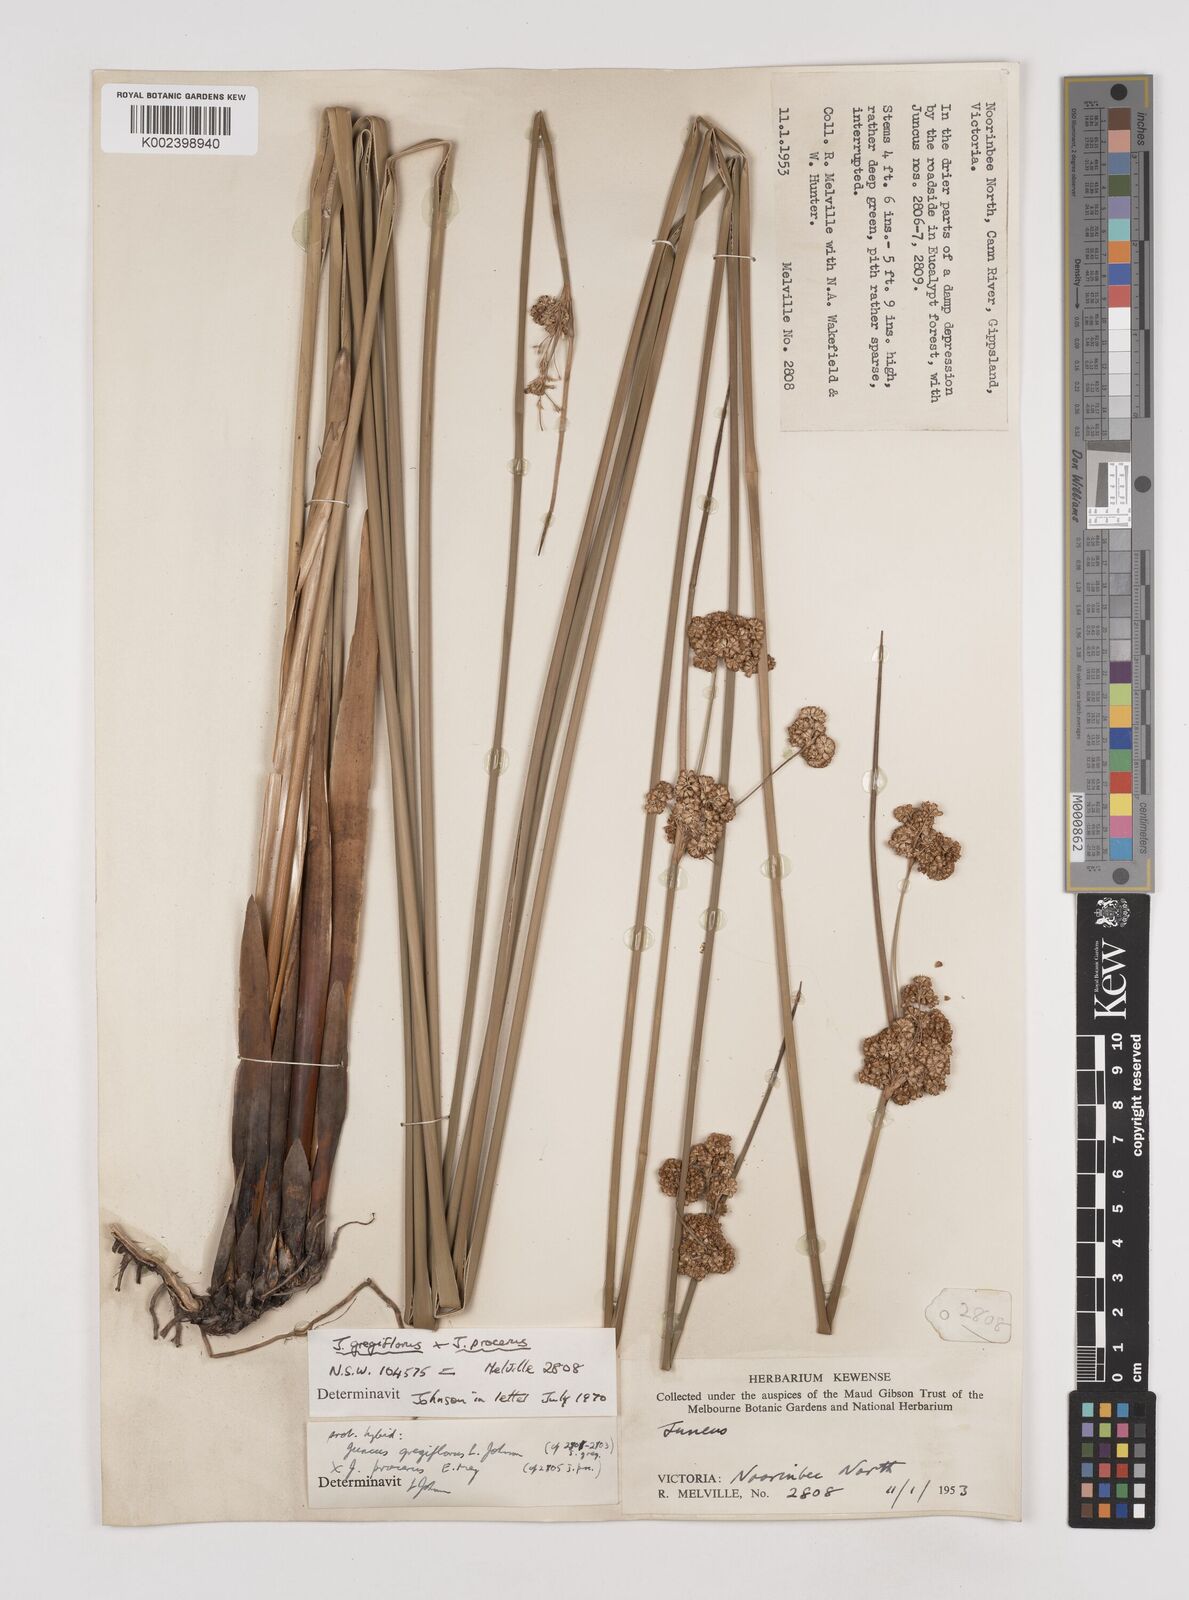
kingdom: Plantae
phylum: Tracheophyta
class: Liliopsida
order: Poales
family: Juncaceae
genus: Juncus
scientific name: Juncus gregiflorus
